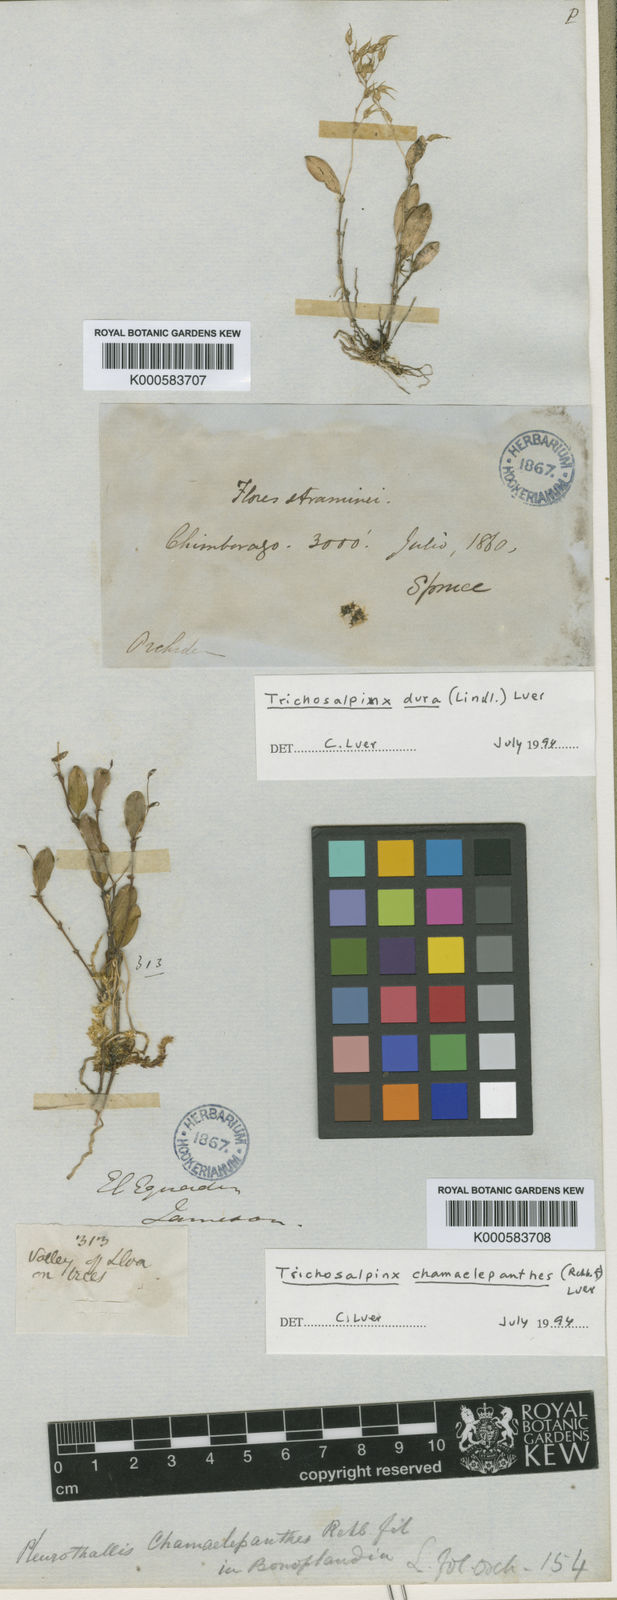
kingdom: Plantae
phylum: Tracheophyta
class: Liliopsida
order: Asparagales
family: Orchidaceae
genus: Gravendeelia
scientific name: Gravendeelia chamaelepanthes
